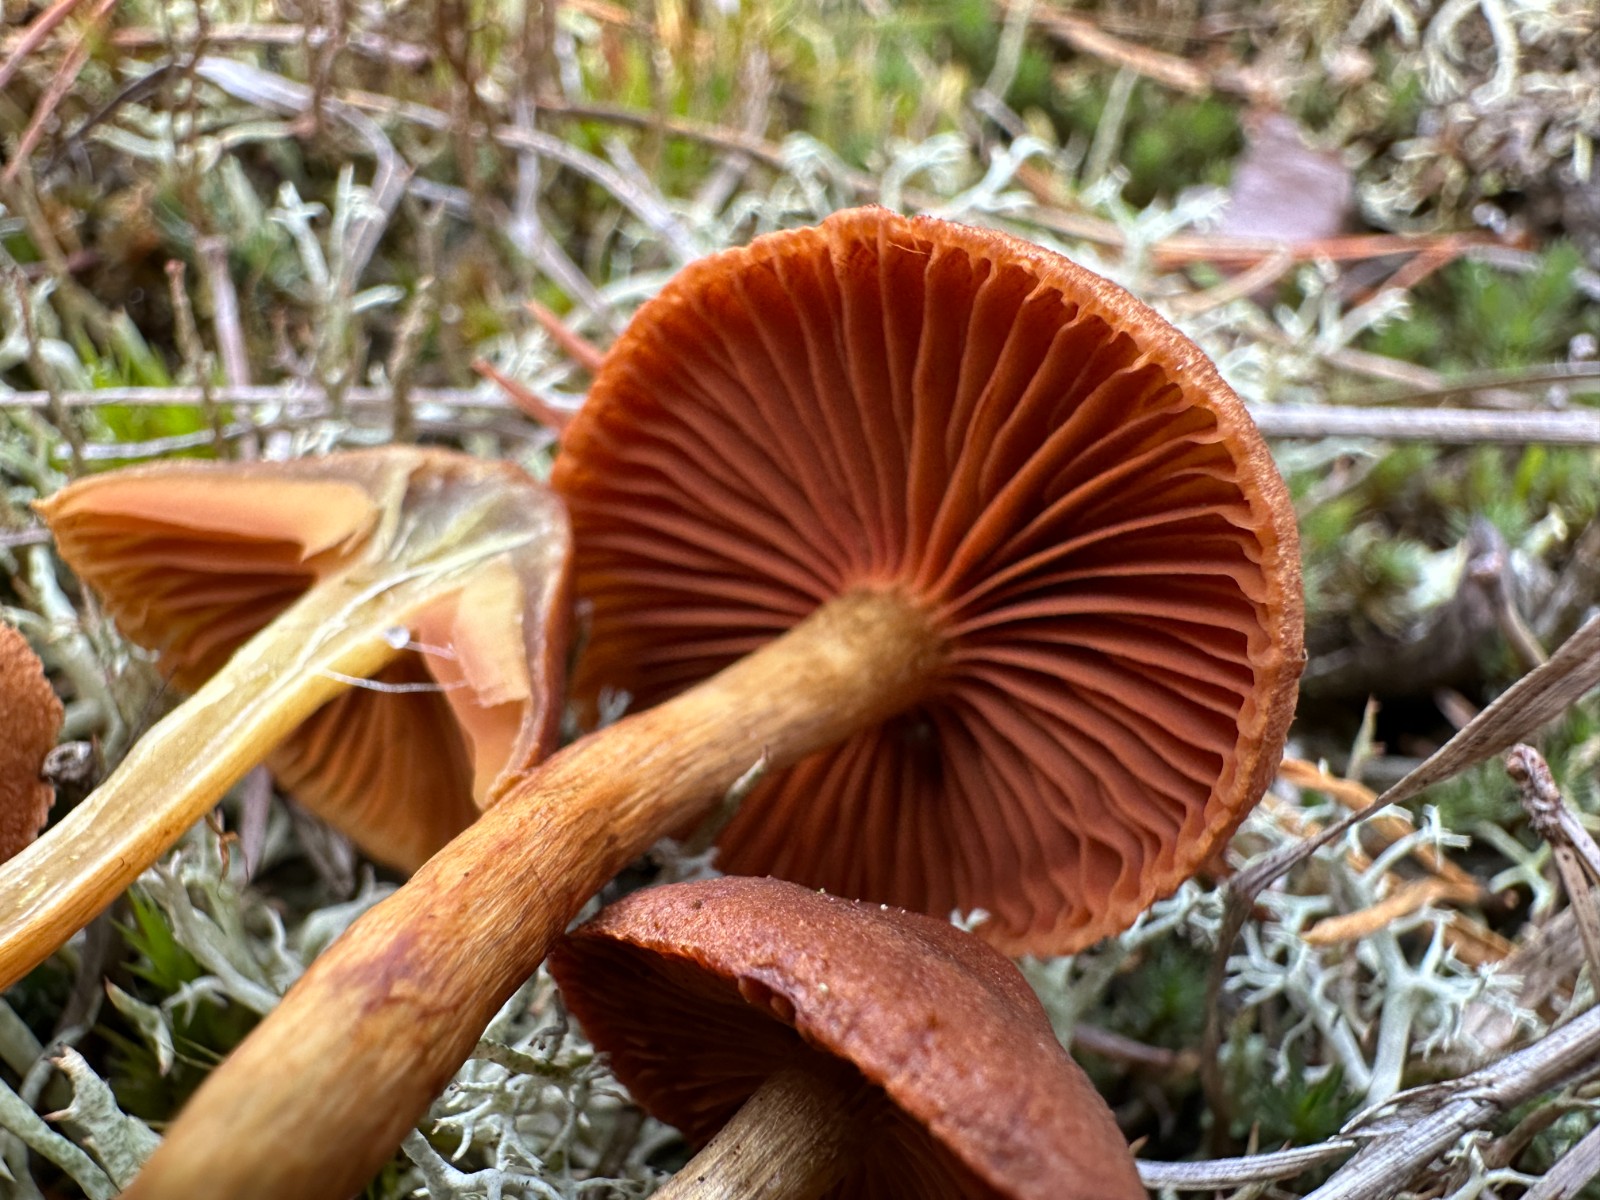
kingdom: Fungi
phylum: Basidiomycota
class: Agaricomycetes
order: Agaricales
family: Cortinariaceae
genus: Cortinarius
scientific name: Cortinarius
